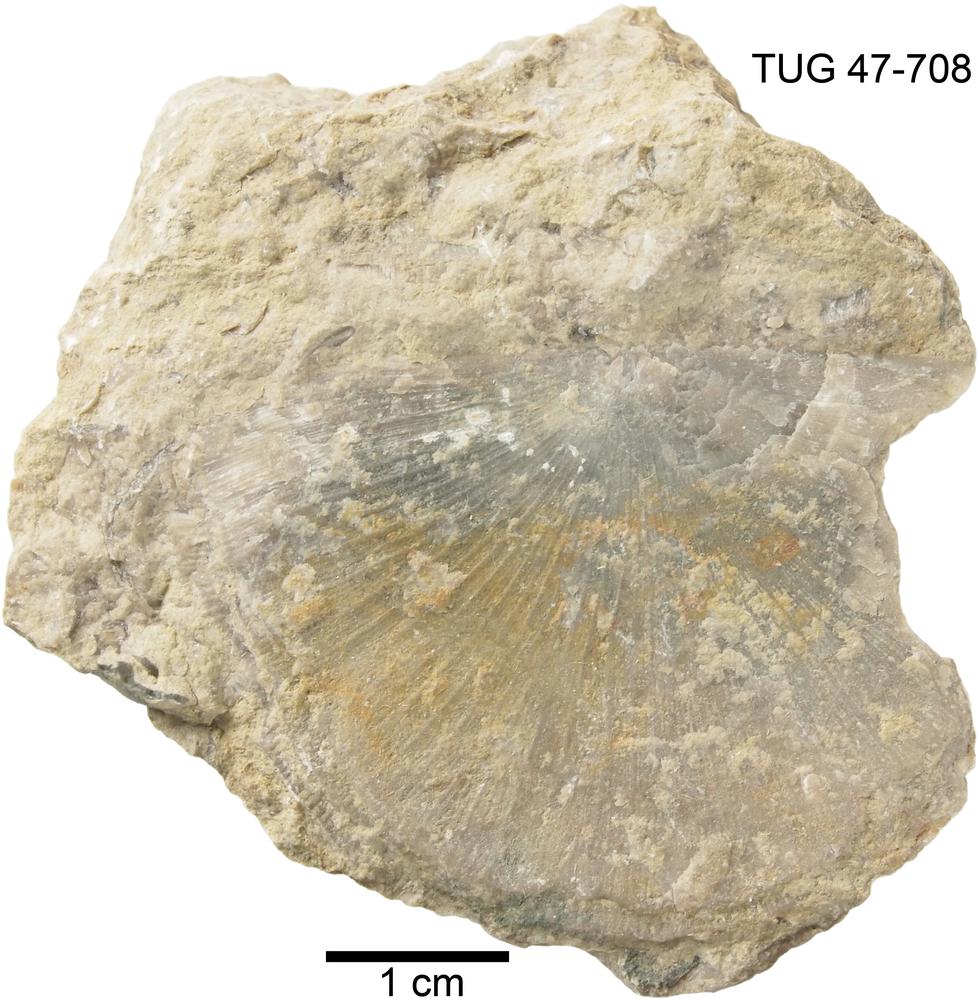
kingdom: Animalia
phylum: Brachiopoda
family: Leptaenidae
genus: Kurnamena
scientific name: Kurnamena
